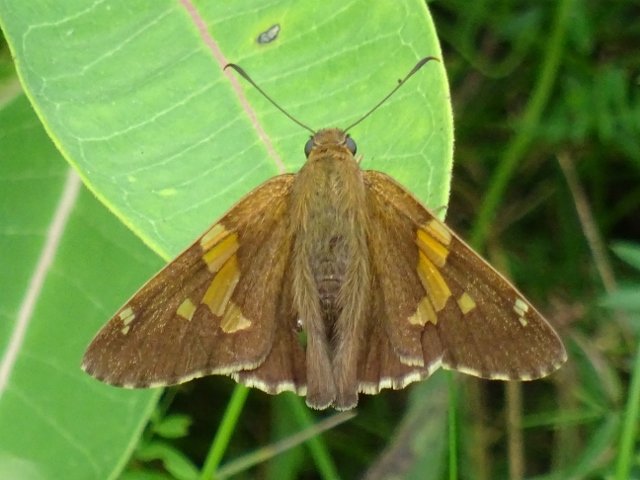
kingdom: Animalia
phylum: Arthropoda
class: Insecta
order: Lepidoptera
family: Hesperiidae
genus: Epargyreus
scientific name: Epargyreus clarus
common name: Silver-spotted Skipper
